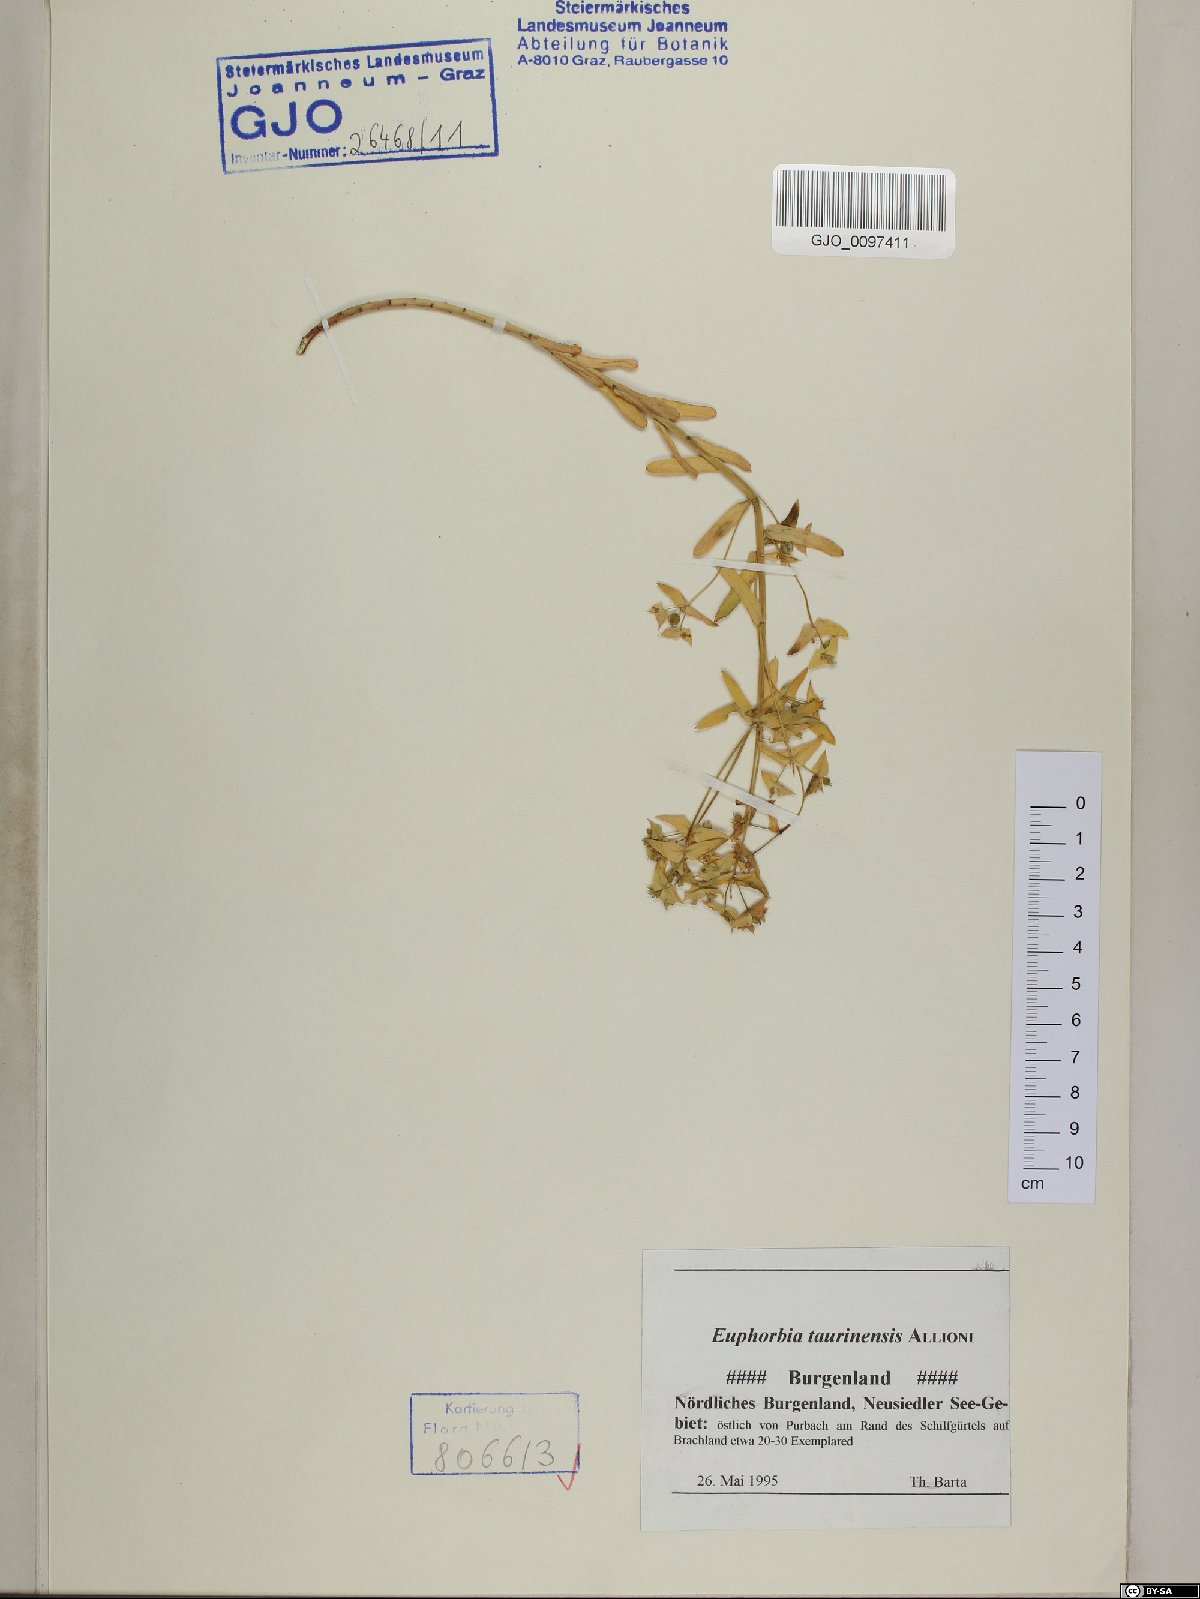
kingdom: Plantae
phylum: Tracheophyta
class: Magnoliopsida
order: Malpighiales
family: Euphorbiaceae
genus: Euphorbia
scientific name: Euphorbia taurinensis
